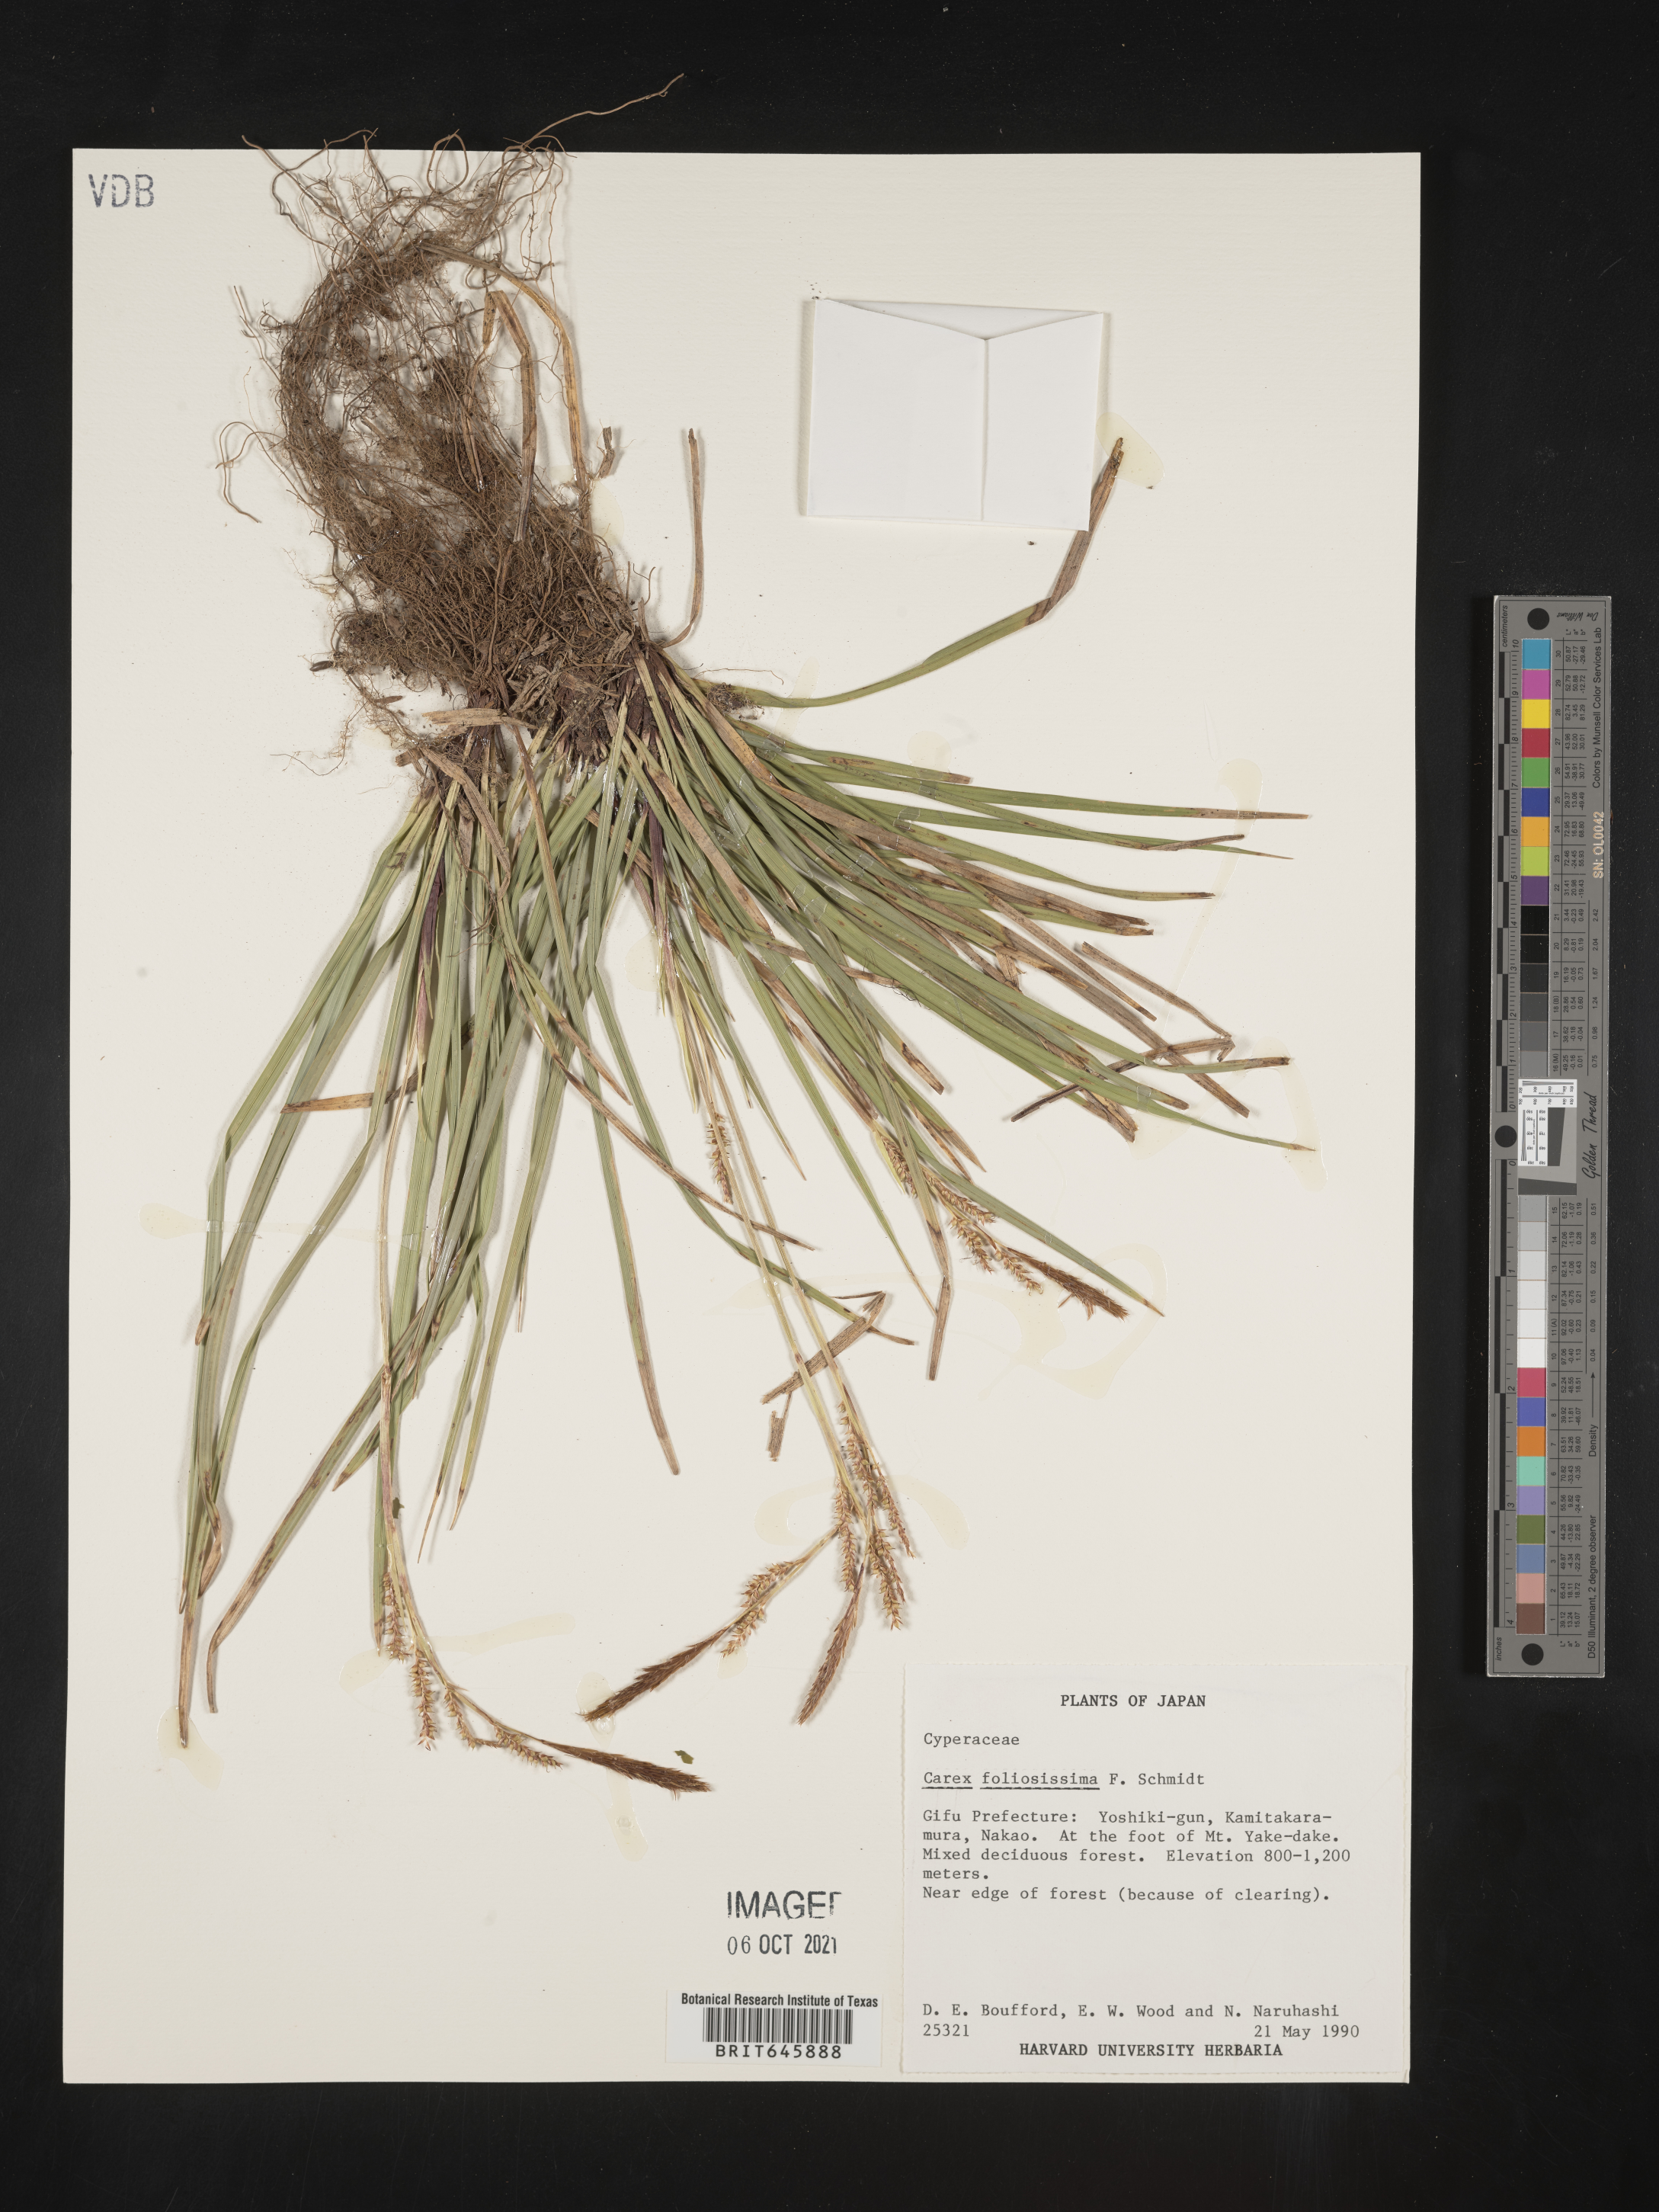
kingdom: Plantae
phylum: Tracheophyta
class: Liliopsida
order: Poales
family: Cyperaceae
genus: Carex
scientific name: Carex foliosissima
